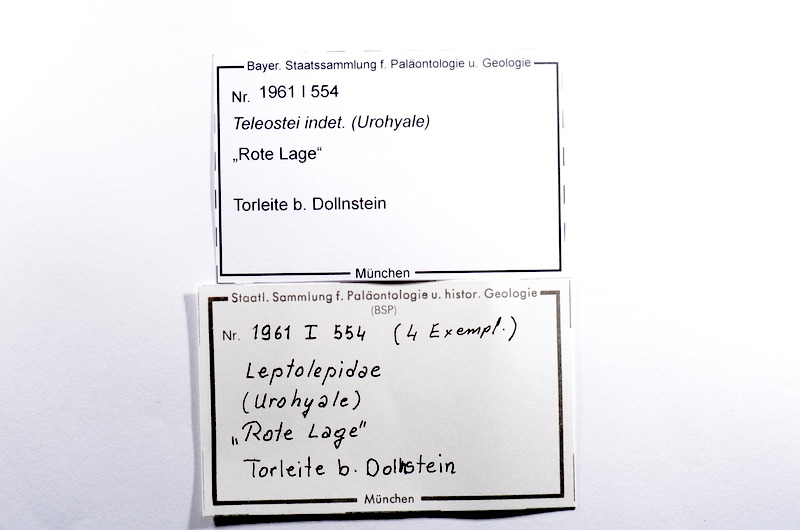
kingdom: Animalia
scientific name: Animalia
